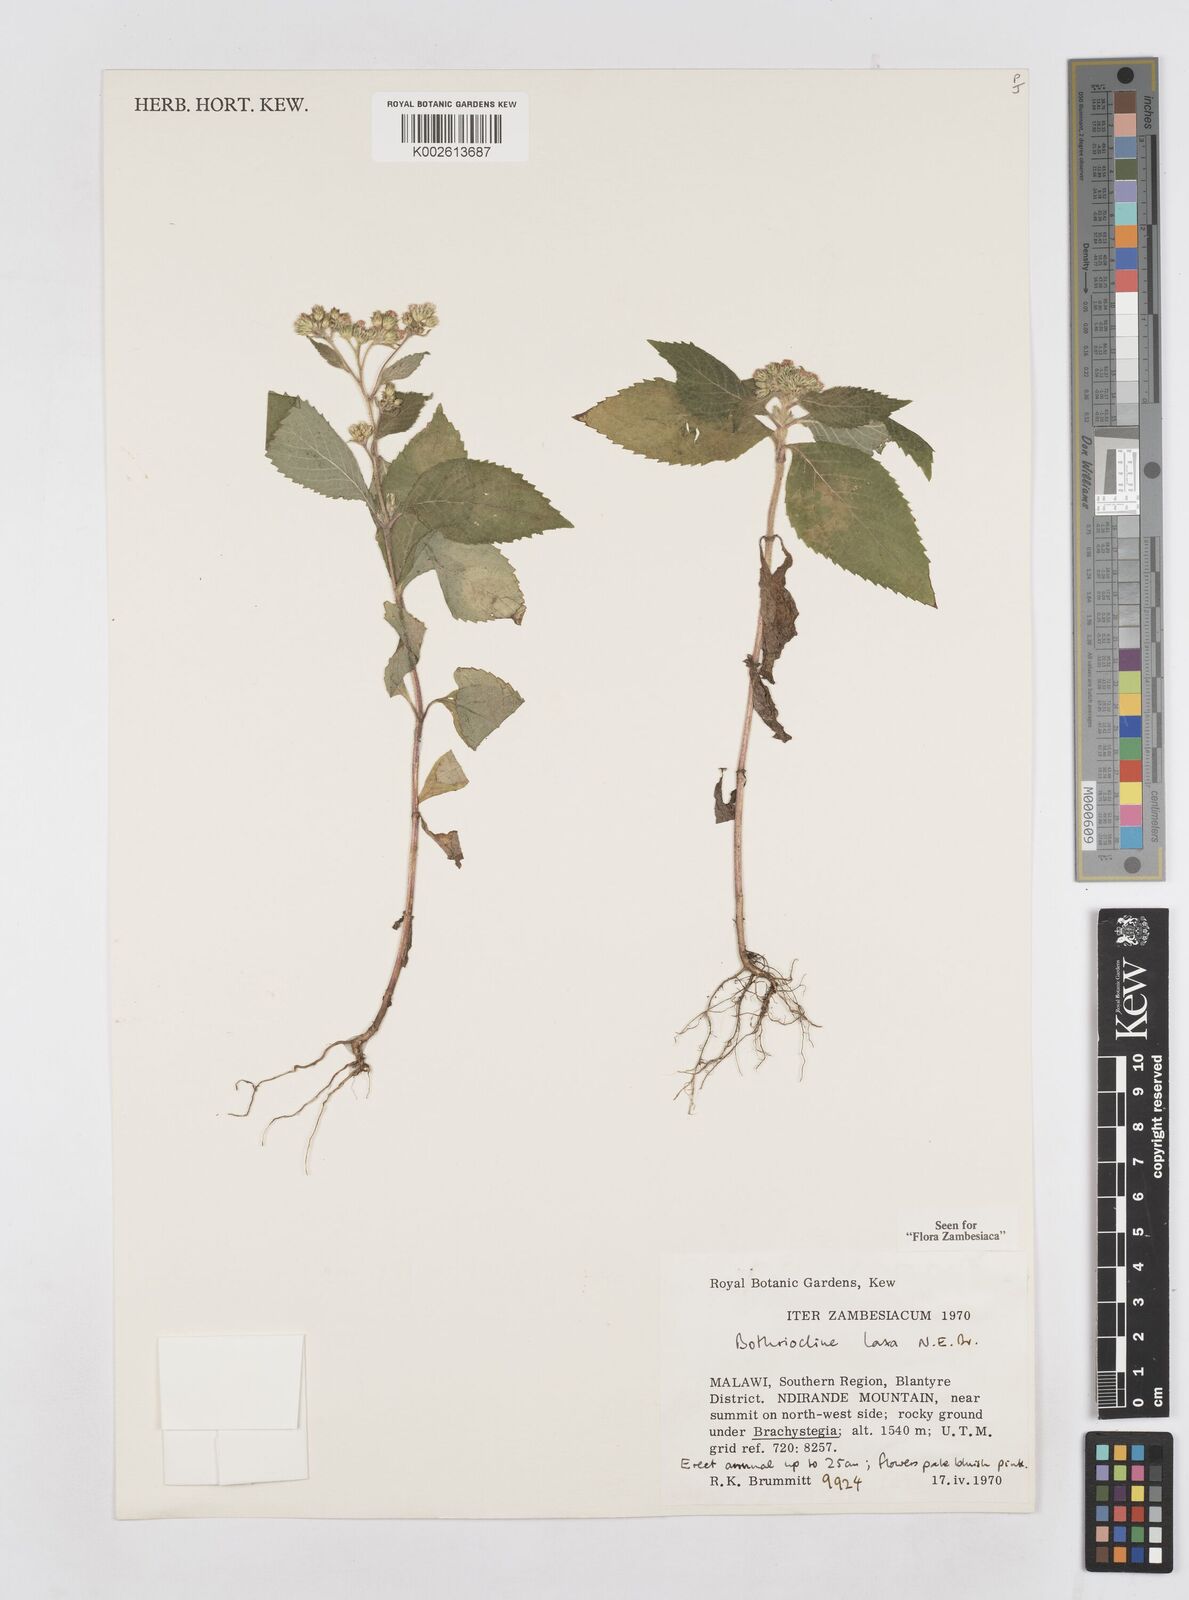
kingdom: Plantae
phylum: Tracheophyta
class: Magnoliopsida
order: Asterales
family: Asteraceae
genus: Bothriocline
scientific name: Bothriocline laxa
